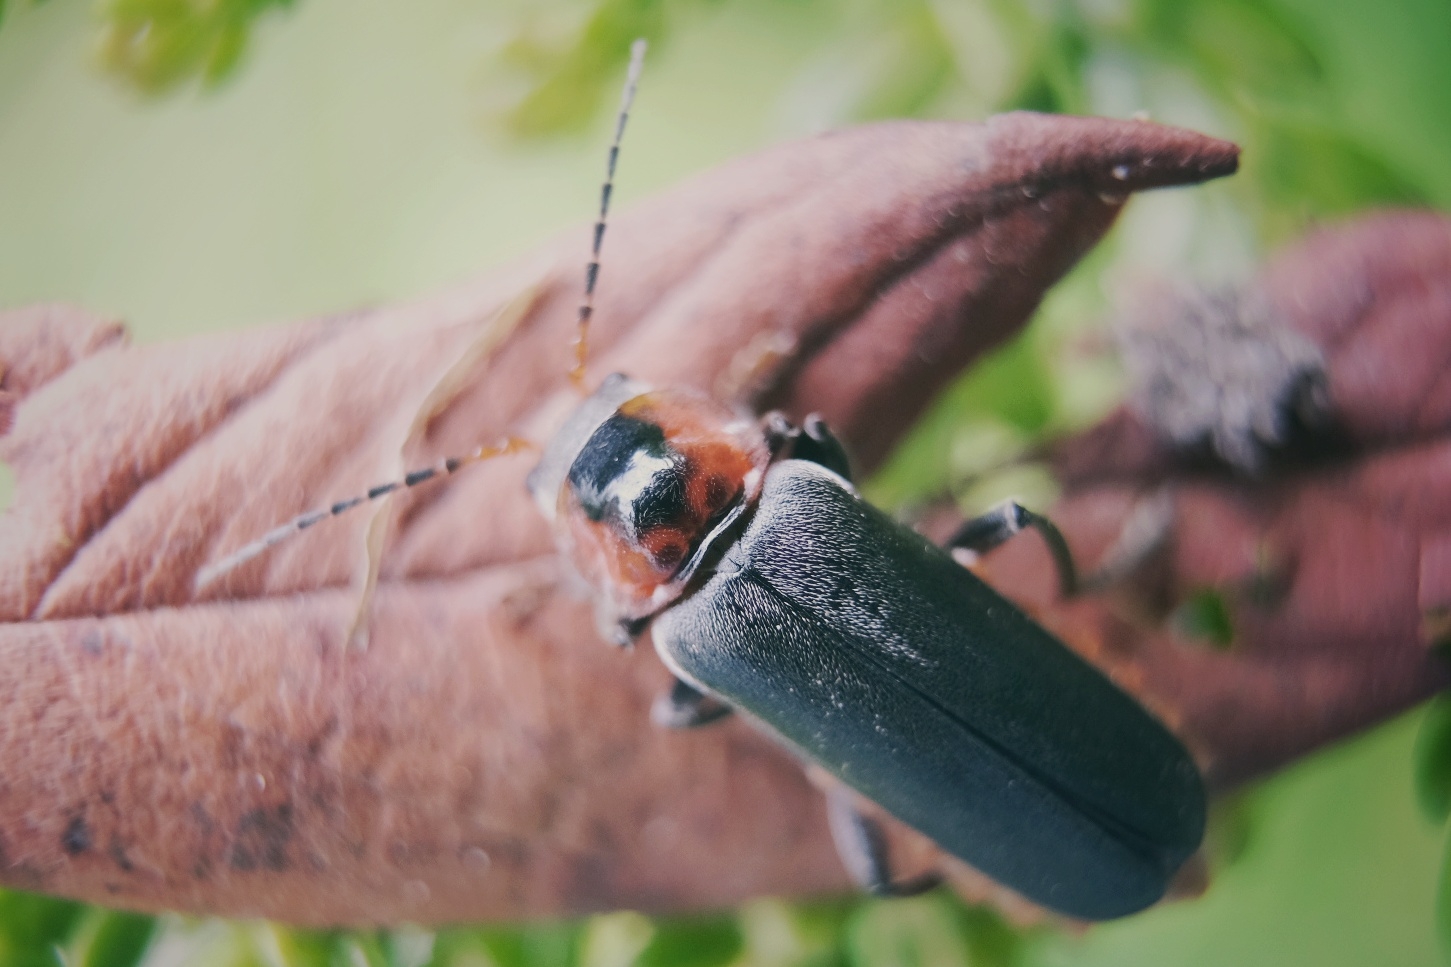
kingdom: Animalia
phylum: Arthropoda
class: Insecta
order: Coleoptera
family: Cantharidae
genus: Cantharis
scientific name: Cantharis fusca
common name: Stor blødvinge
